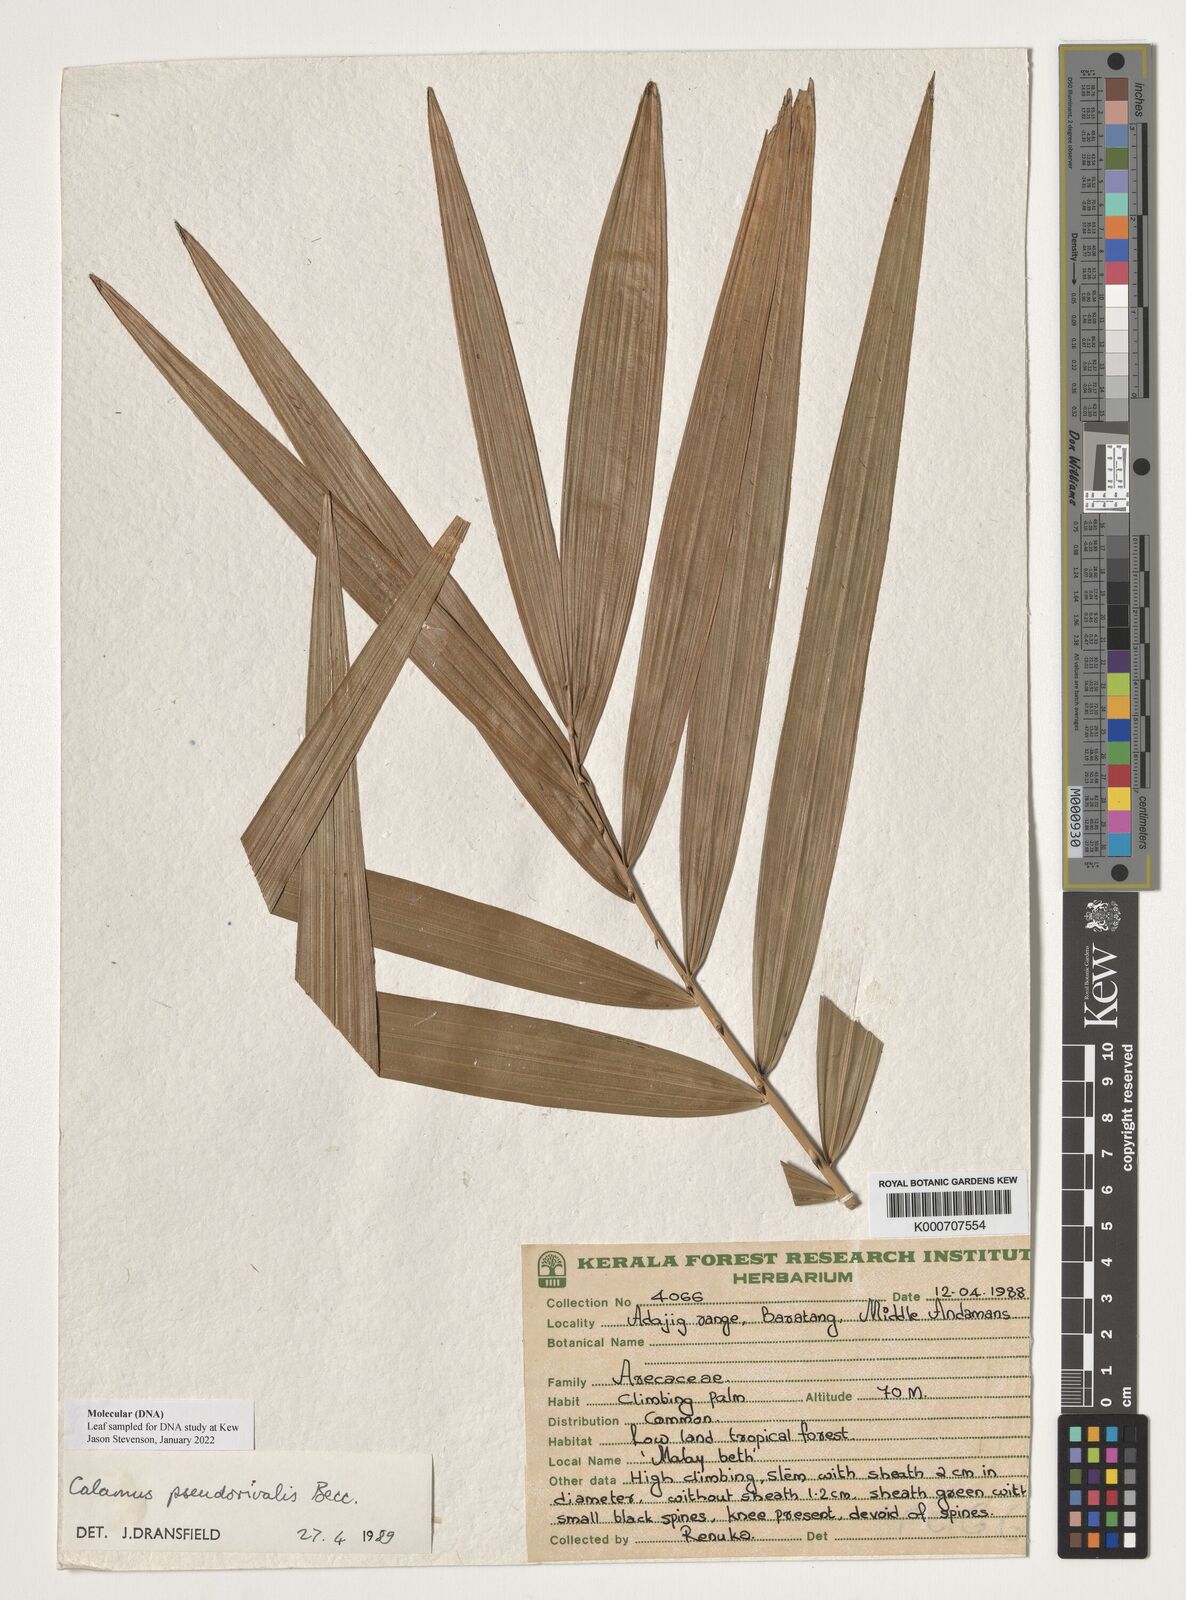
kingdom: Plantae
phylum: Tracheophyta
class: Liliopsida
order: Arecales
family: Arecaceae
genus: Calamus
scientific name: Calamus nicobaricus
